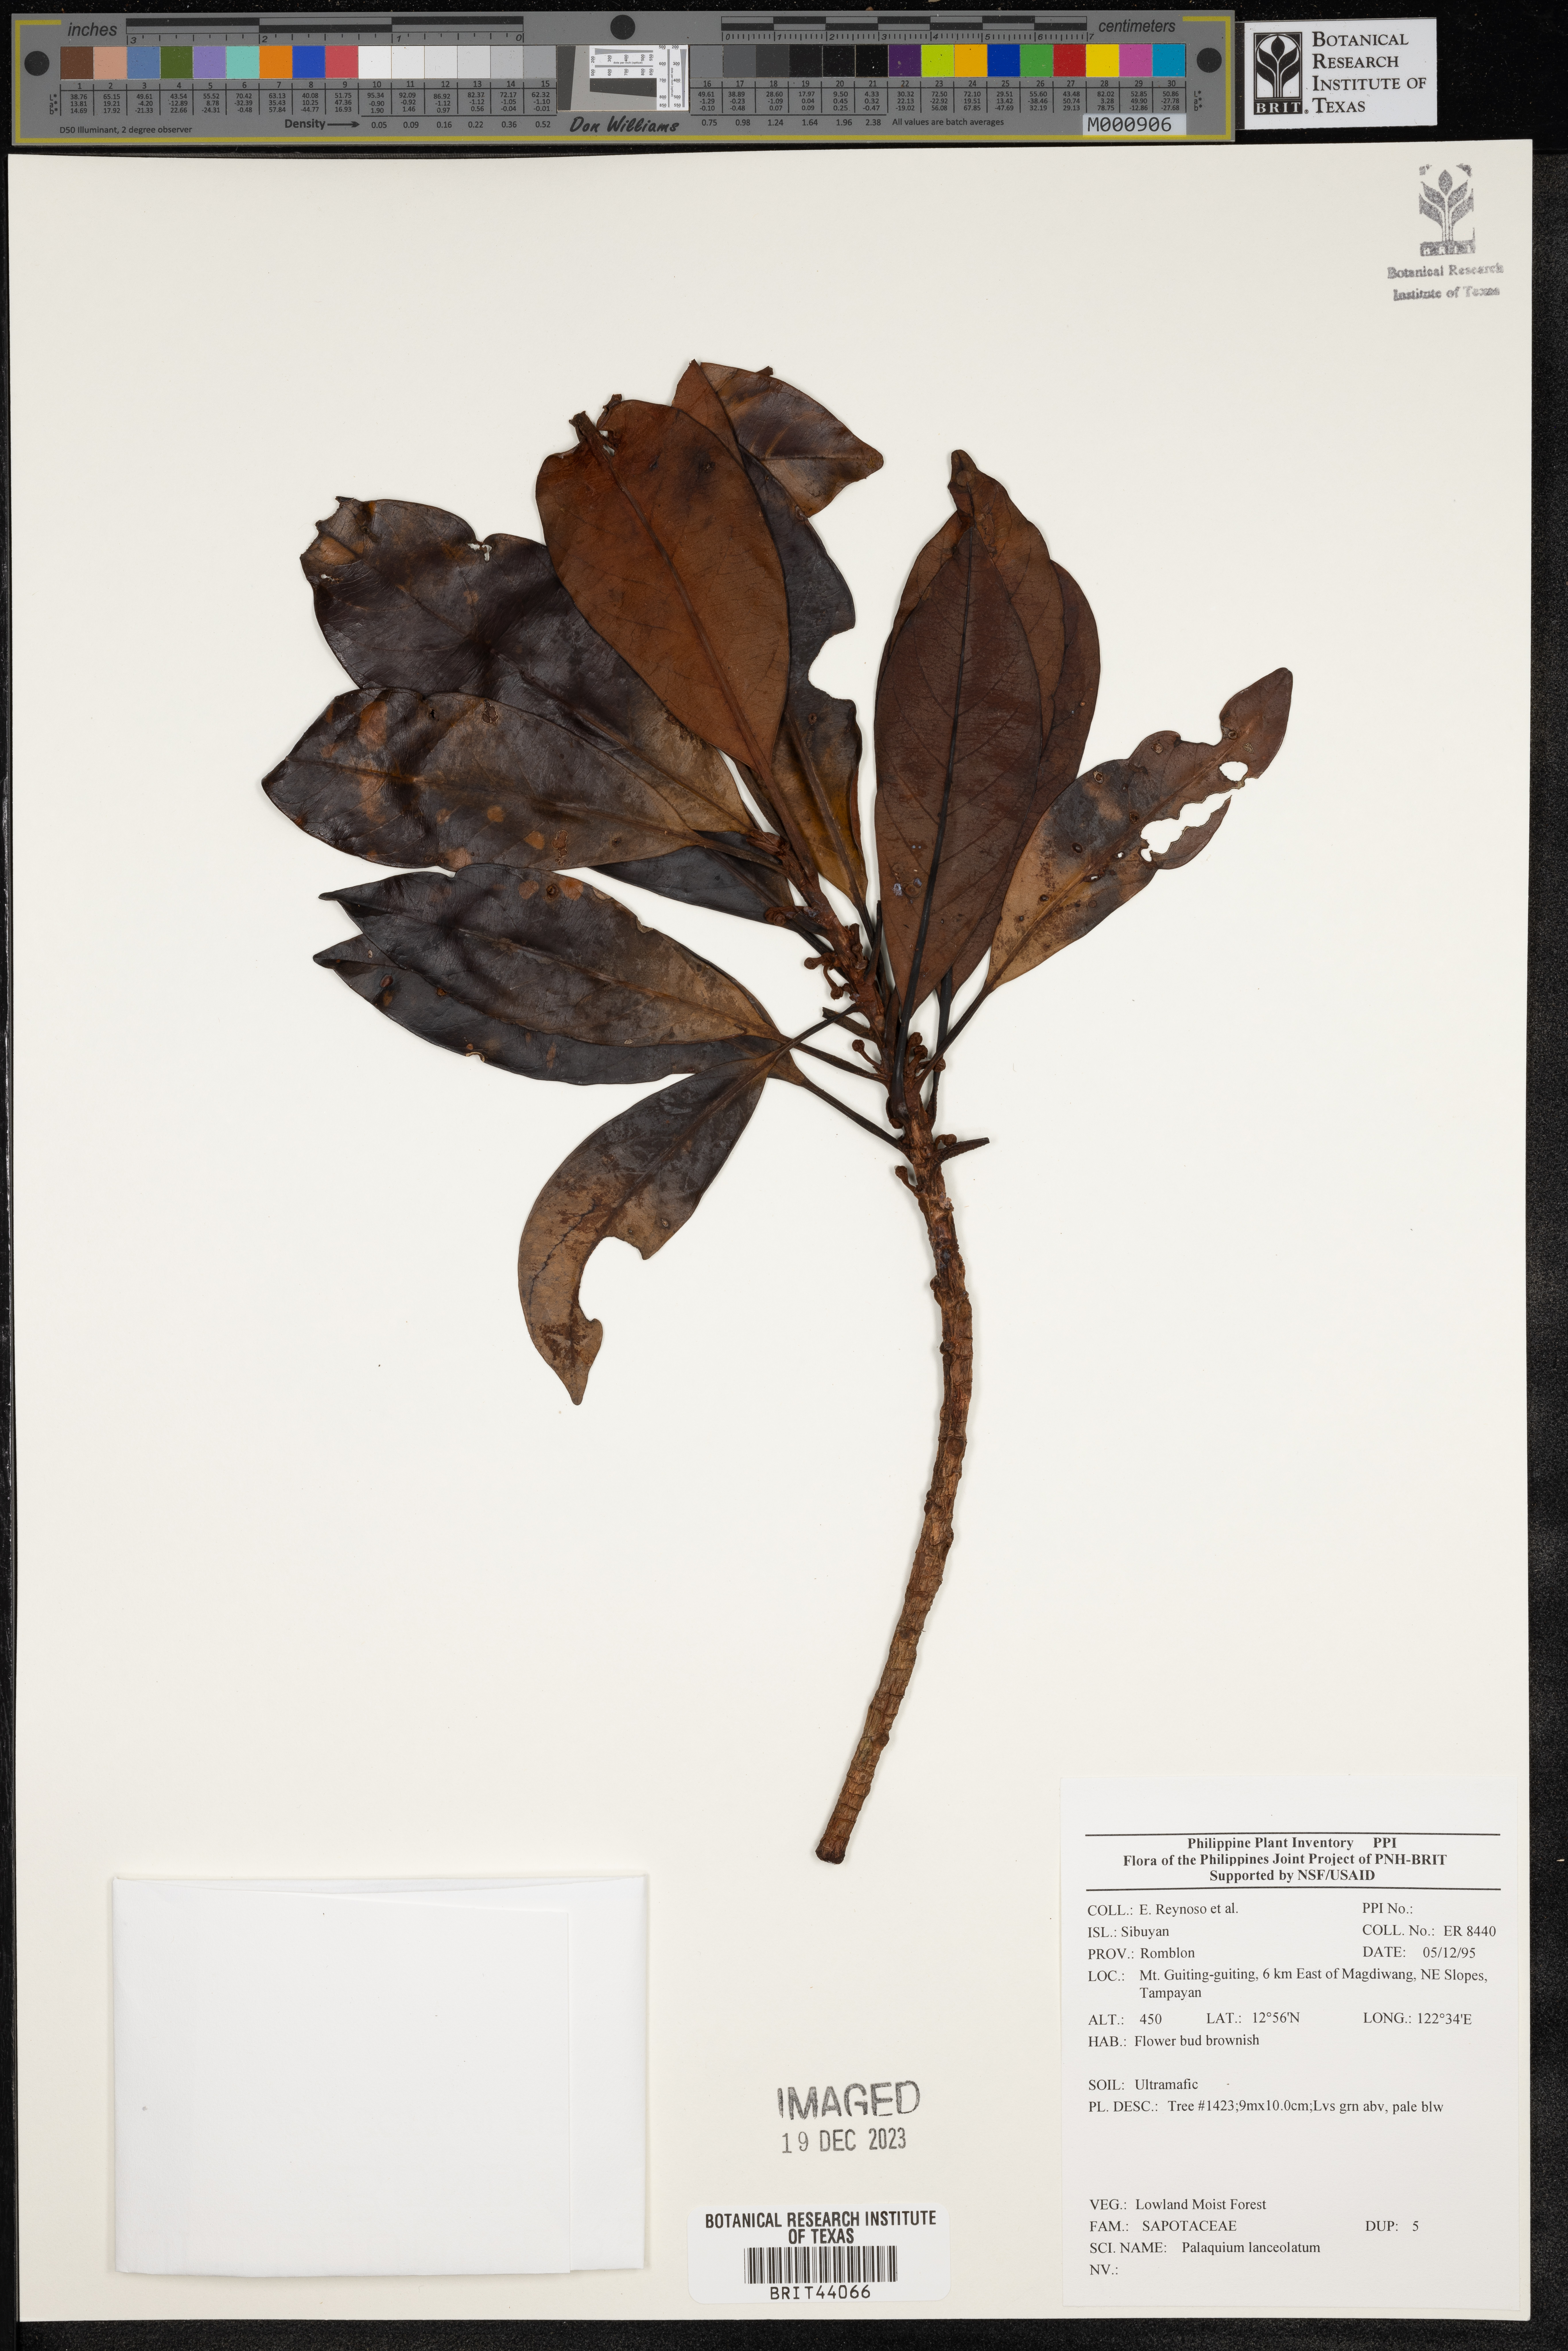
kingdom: Plantae
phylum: Tracheophyta
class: Magnoliopsida
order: Ericales
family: Sapotaceae
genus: Palaquium
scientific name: Palaquium lanceolatum
